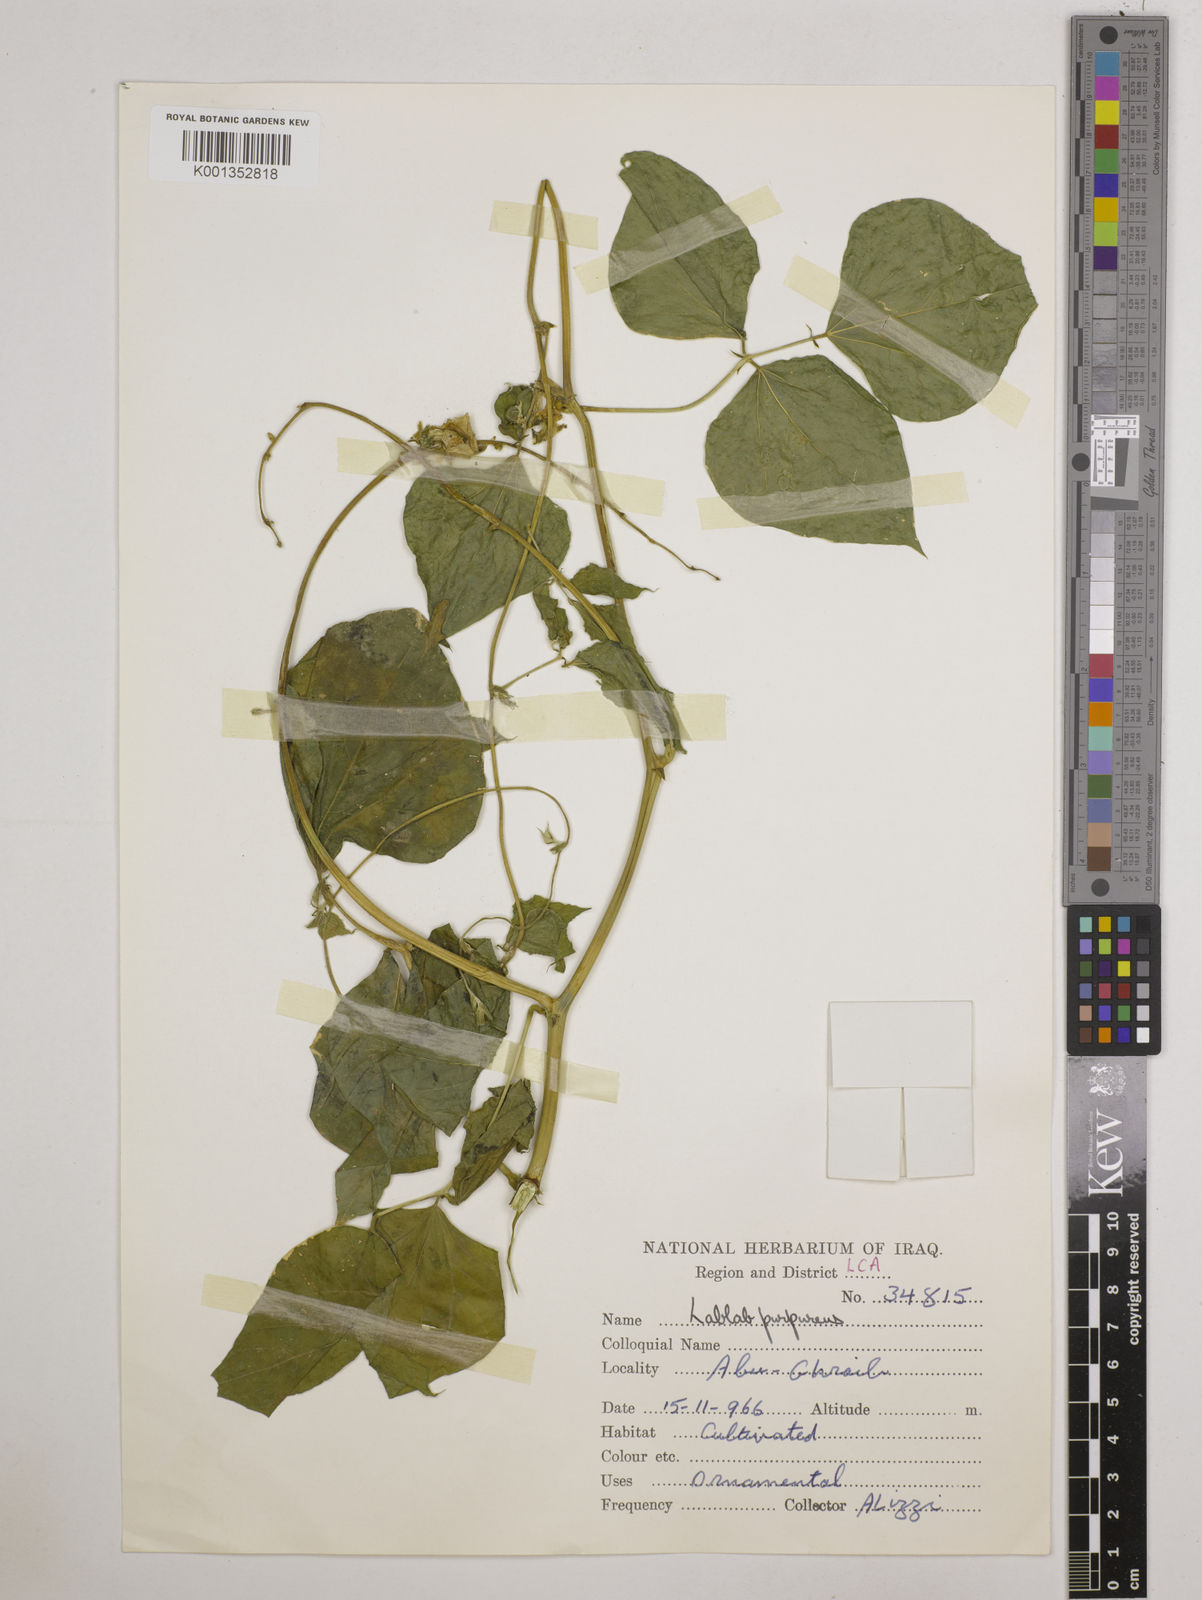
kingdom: Plantae
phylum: Tracheophyta
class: Magnoliopsida
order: Fabales
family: Fabaceae
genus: Lablab
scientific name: Lablab purpureus
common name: Lablab-bean
